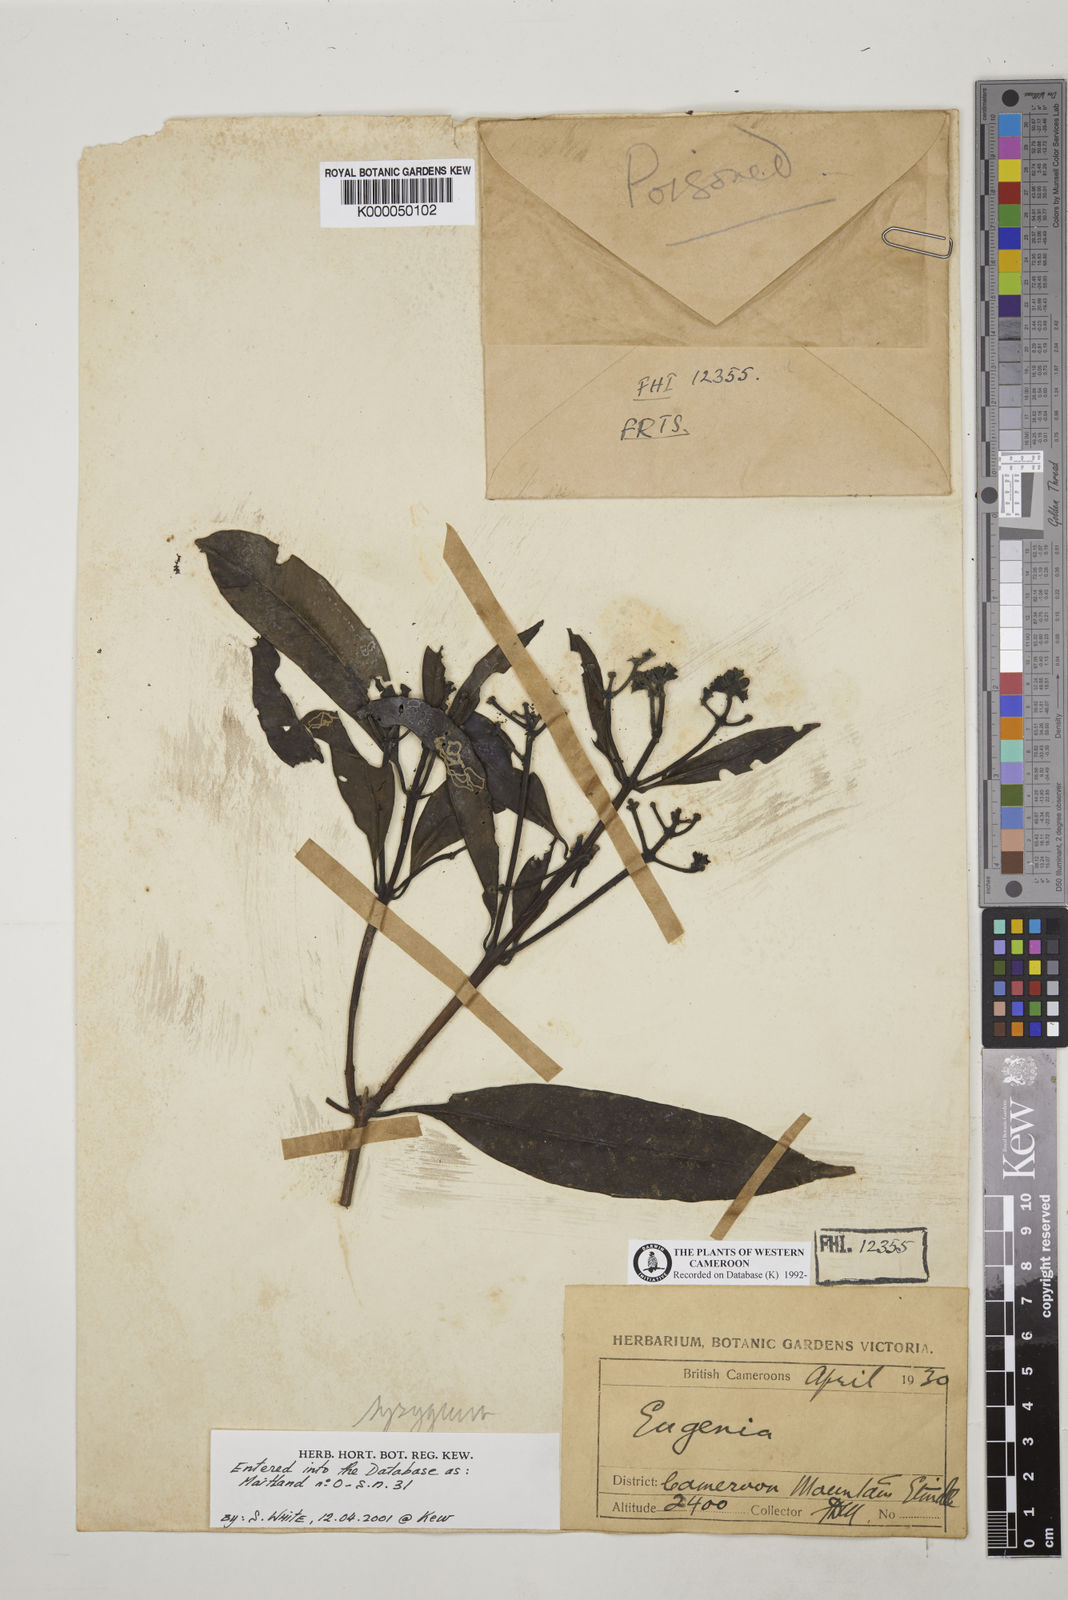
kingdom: Plantae
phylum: Tracheophyta
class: Magnoliopsida
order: Myrtales
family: Myrtaceae
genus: Syzygium
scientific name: Syzygium
